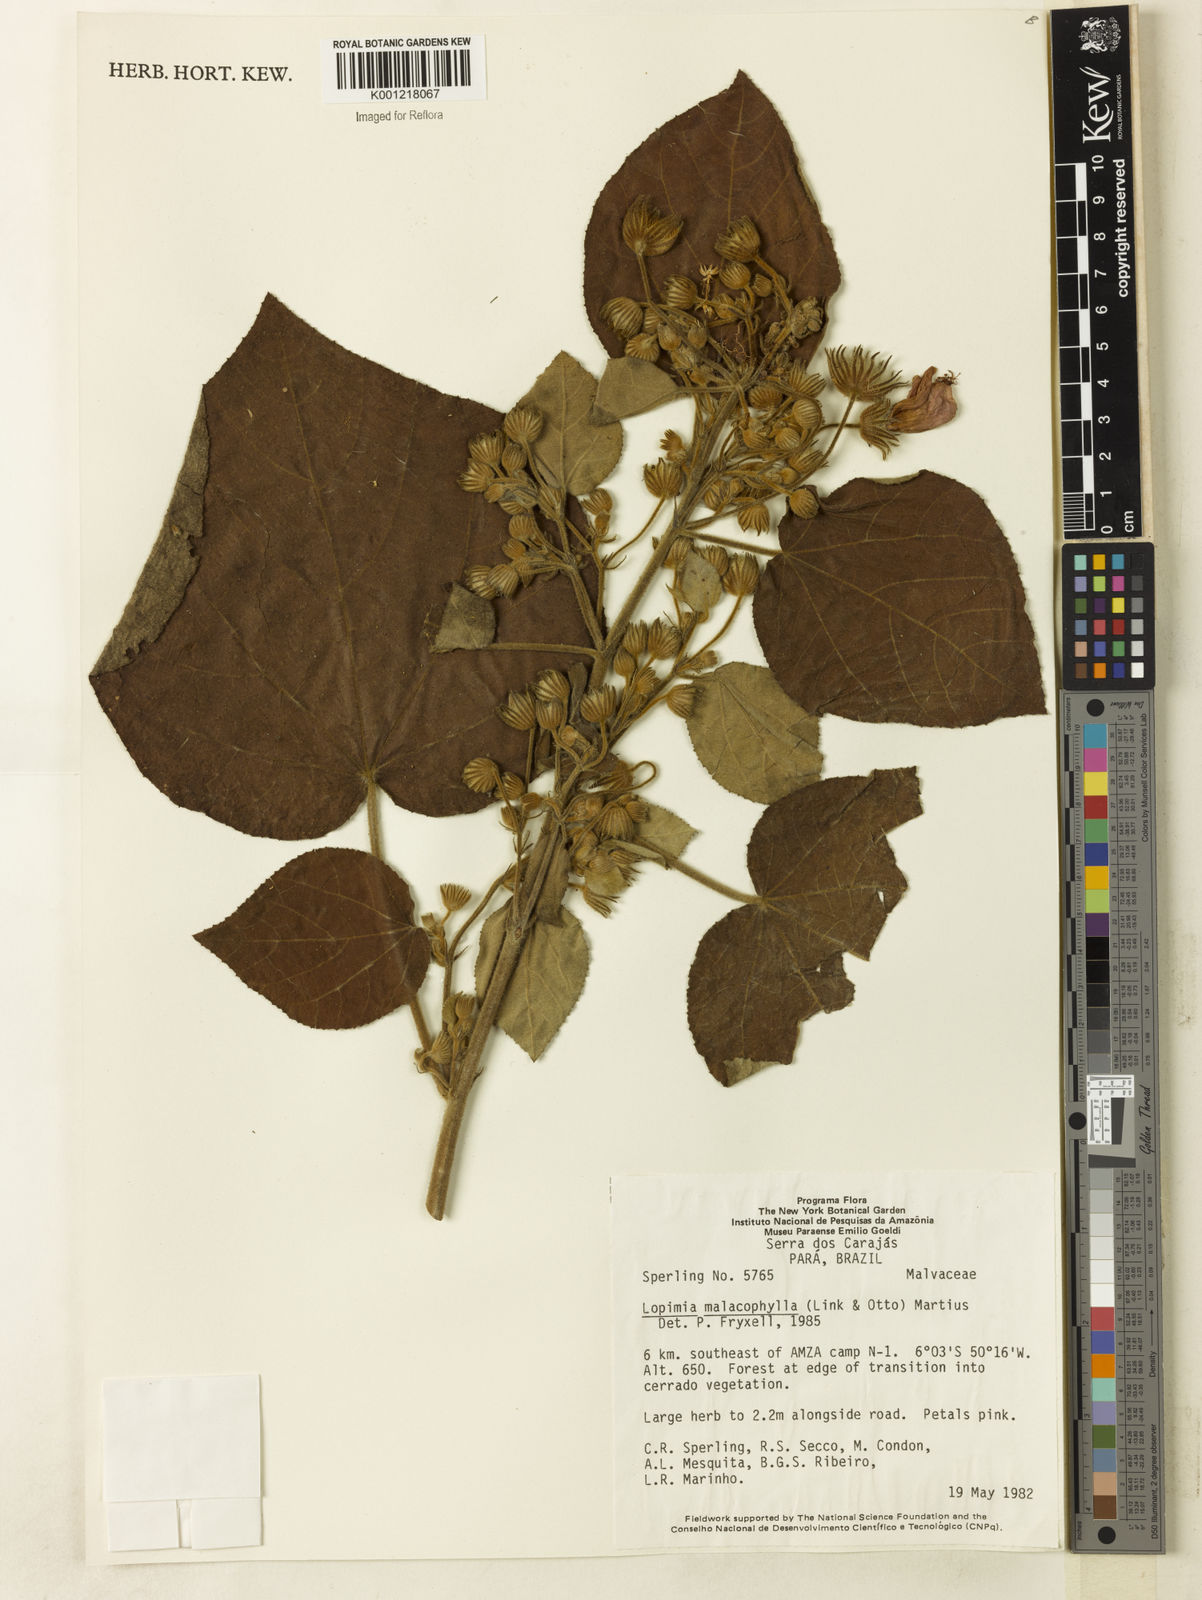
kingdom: Plantae
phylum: Tracheophyta
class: Magnoliopsida
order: Malvales
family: Malvaceae
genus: Pavonia
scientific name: Pavonia malacophylla
